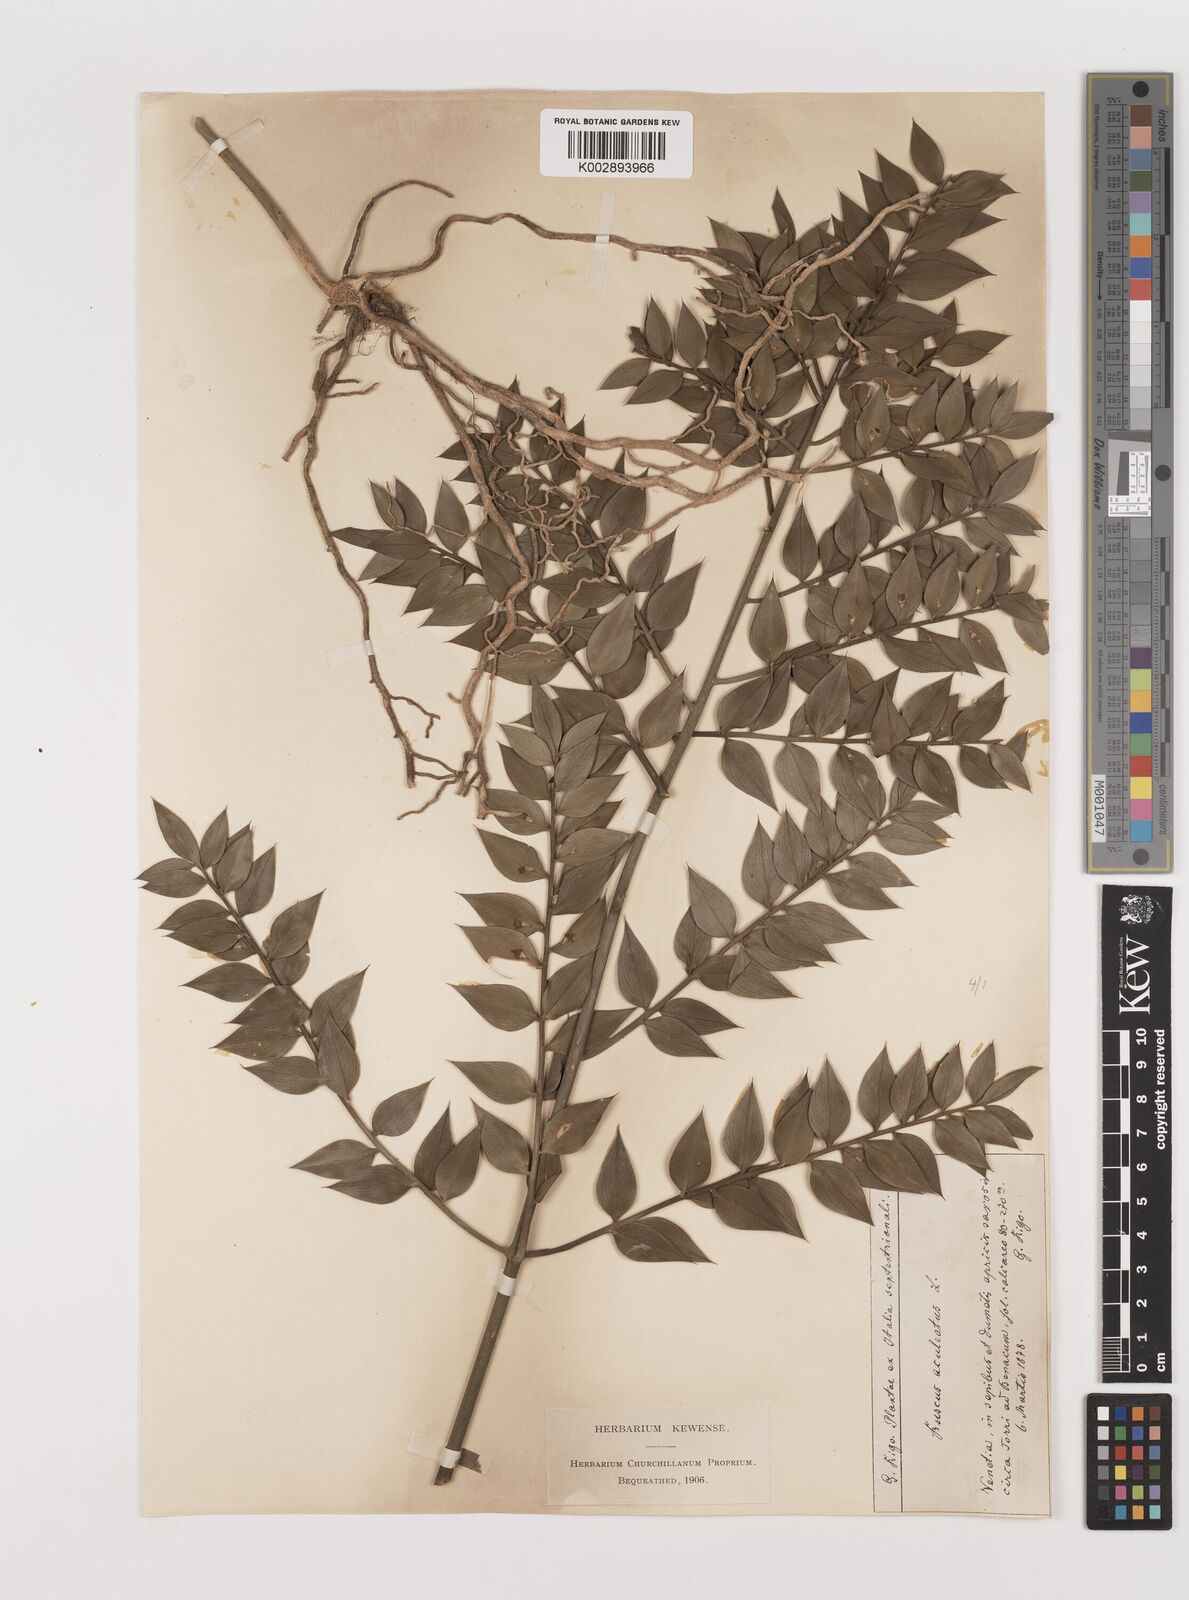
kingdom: Plantae
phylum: Tracheophyta
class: Liliopsida
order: Asparagales
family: Asparagaceae
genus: Ruscus
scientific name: Ruscus
